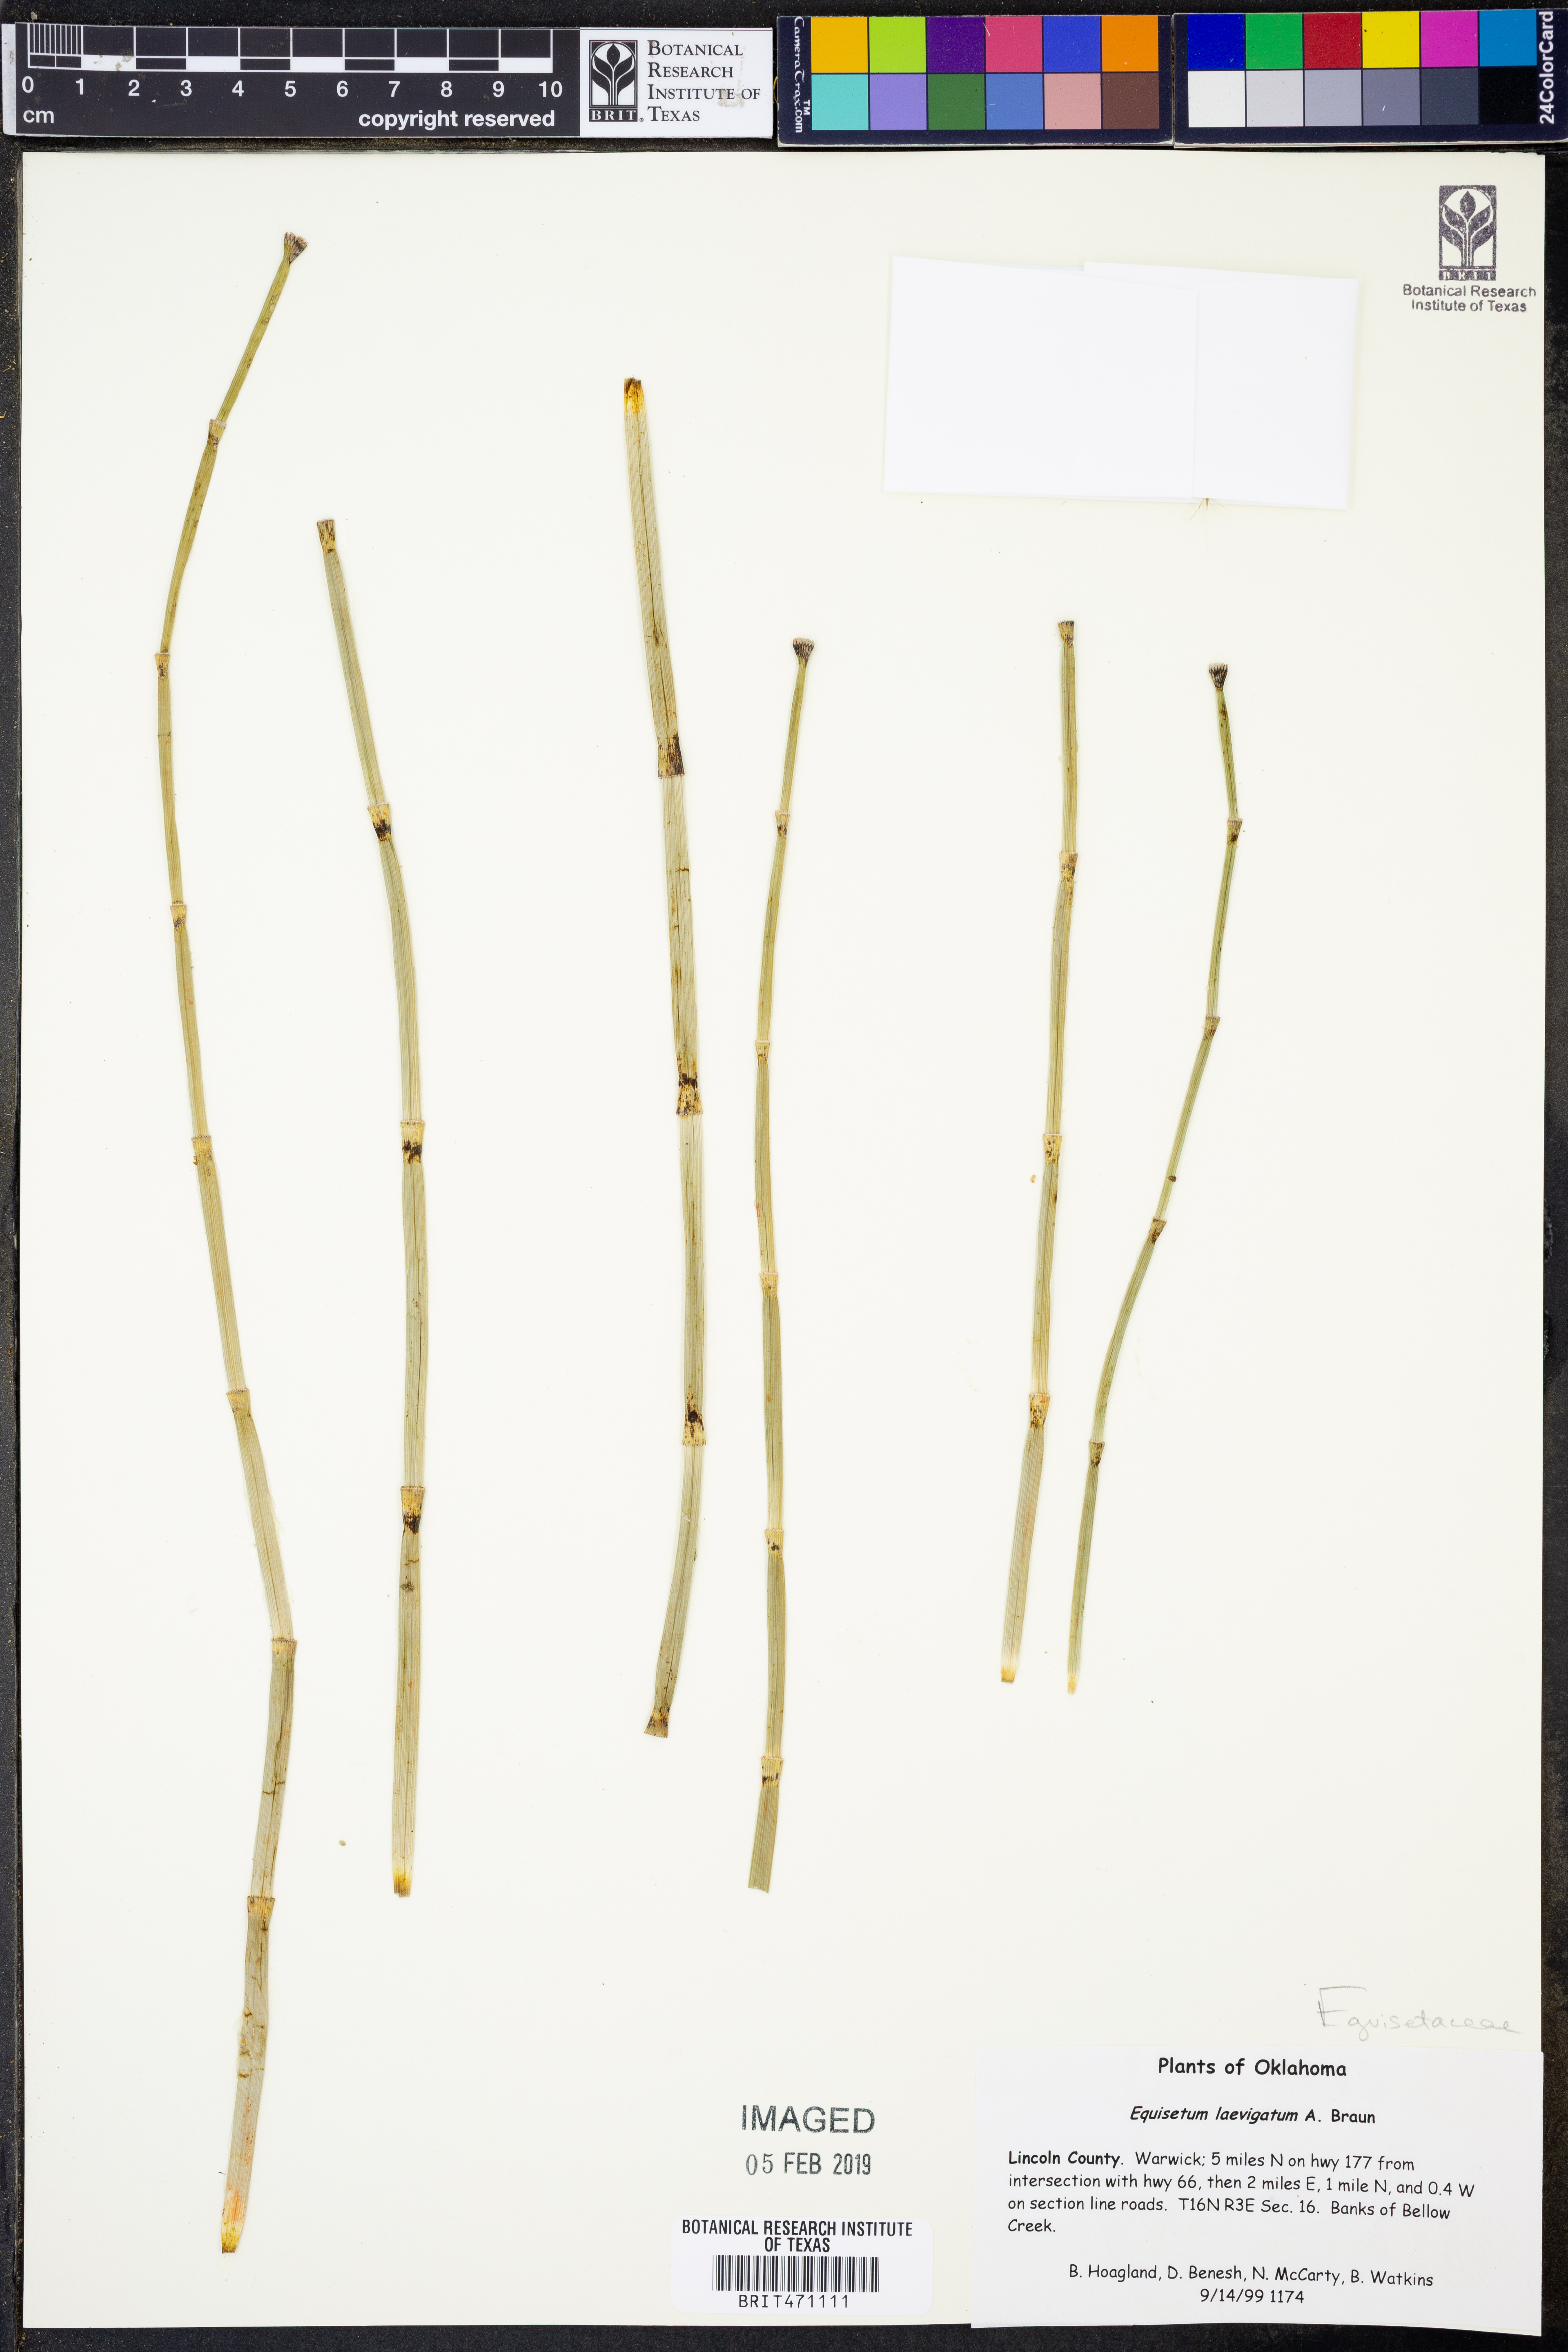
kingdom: Plantae
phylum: Tracheophyta
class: Polypodiopsida
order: Equisetales
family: Equisetaceae
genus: Equisetum
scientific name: Equisetum laevigatum
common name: Smooth scouring-rush
